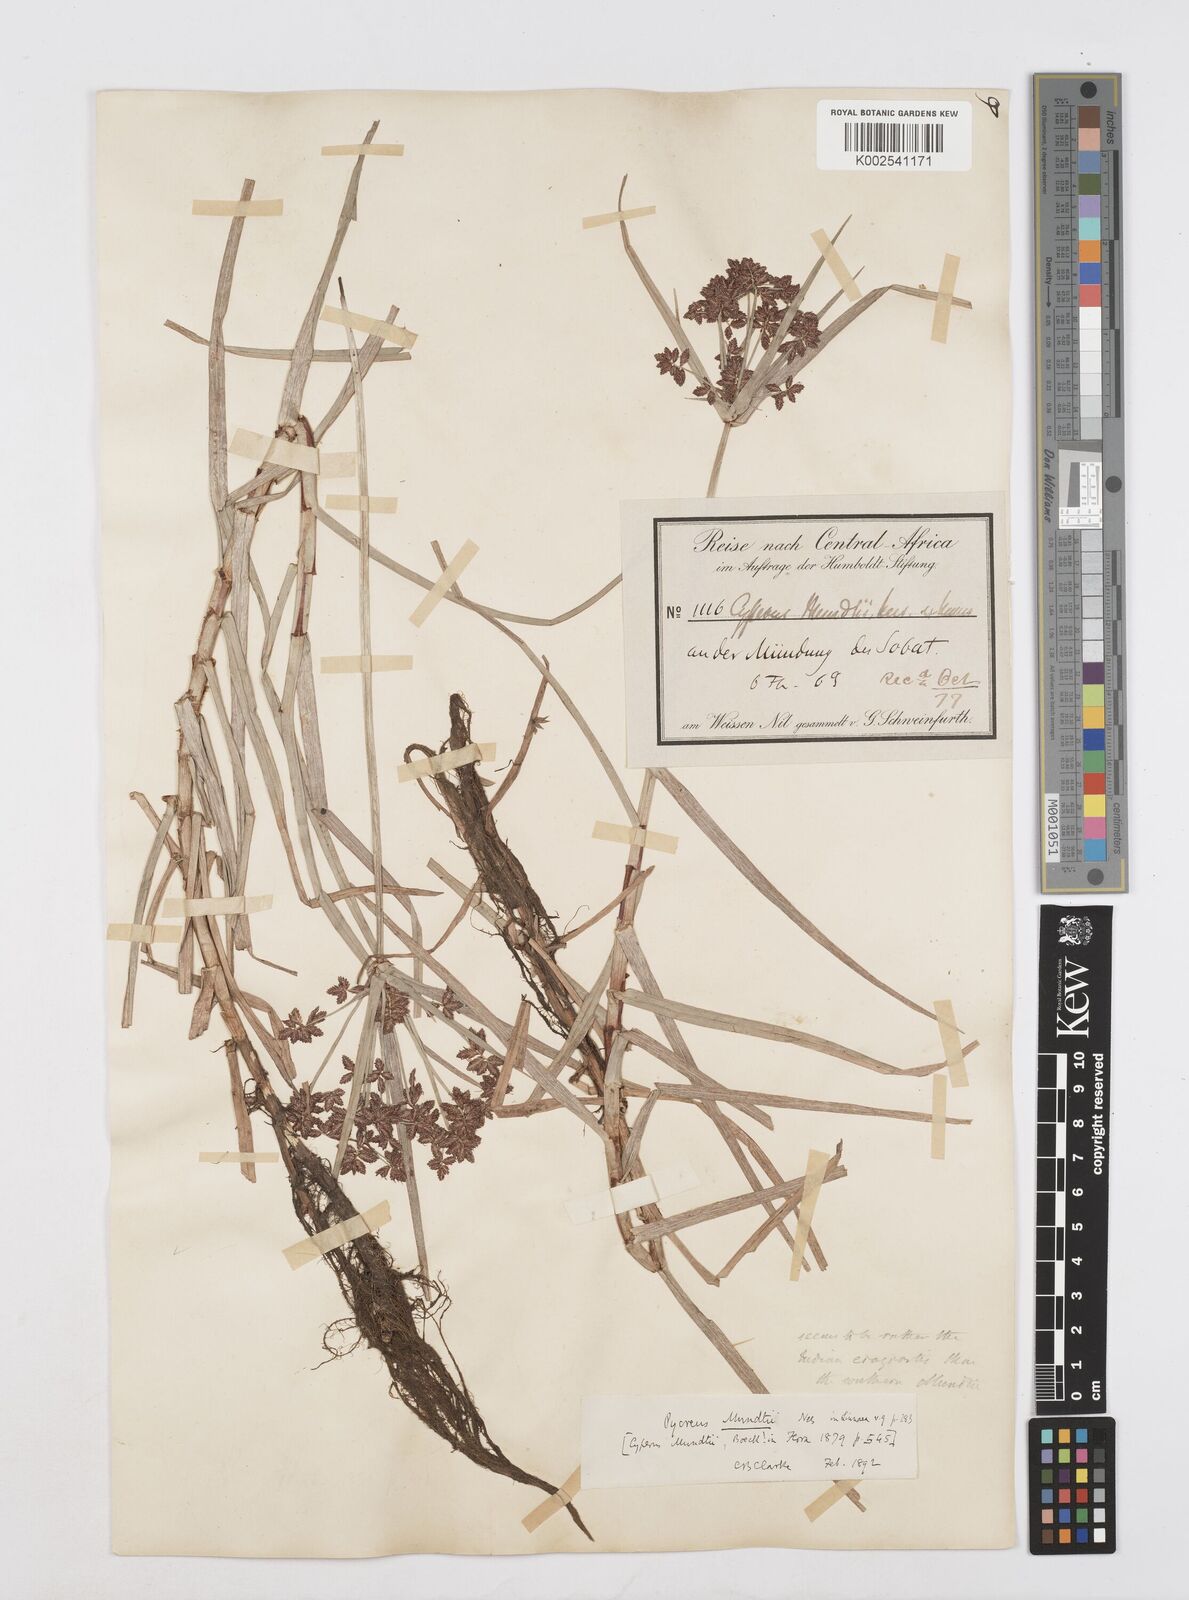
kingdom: Plantae
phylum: Tracheophyta
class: Liliopsida
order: Poales
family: Cyperaceae
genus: Cyperus
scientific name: Cyperus mundii
